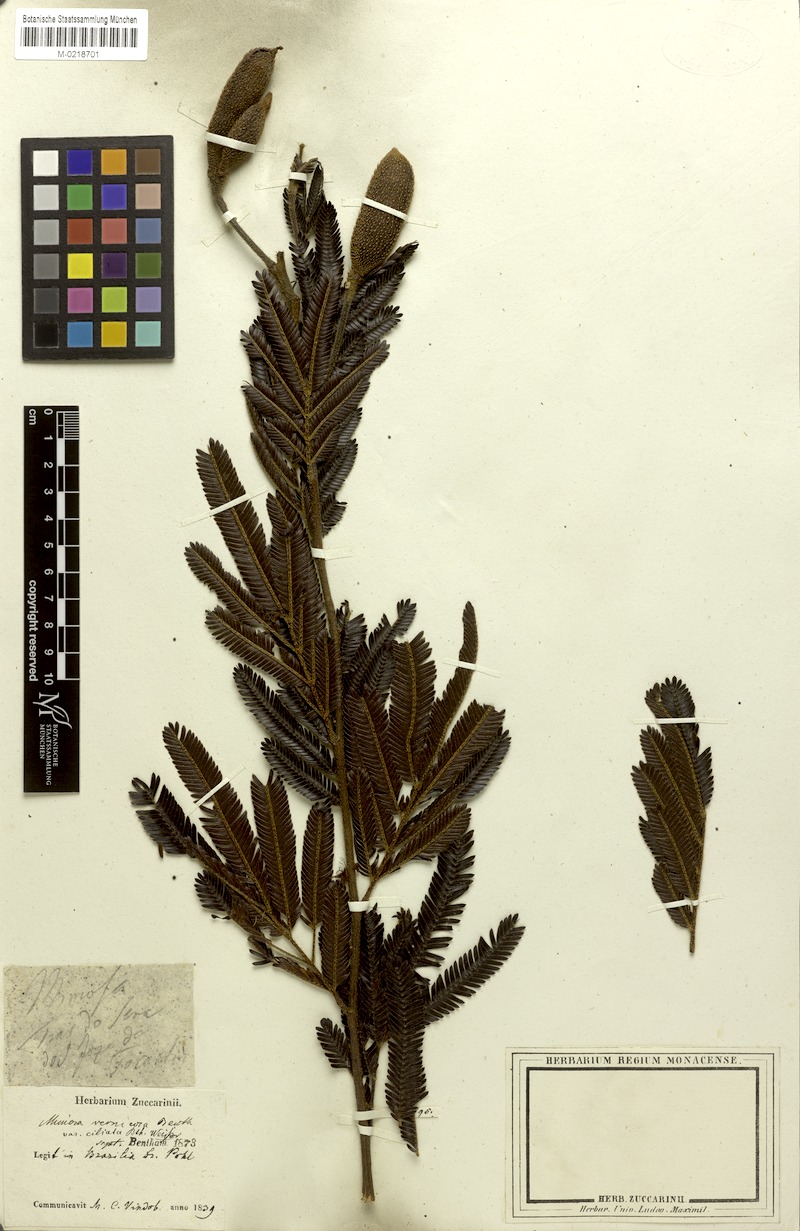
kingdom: Plantae
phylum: Tracheophyta
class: Magnoliopsida
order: Fabales
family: Fabaceae
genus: Mimosa
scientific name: Mimosa foliolosa
